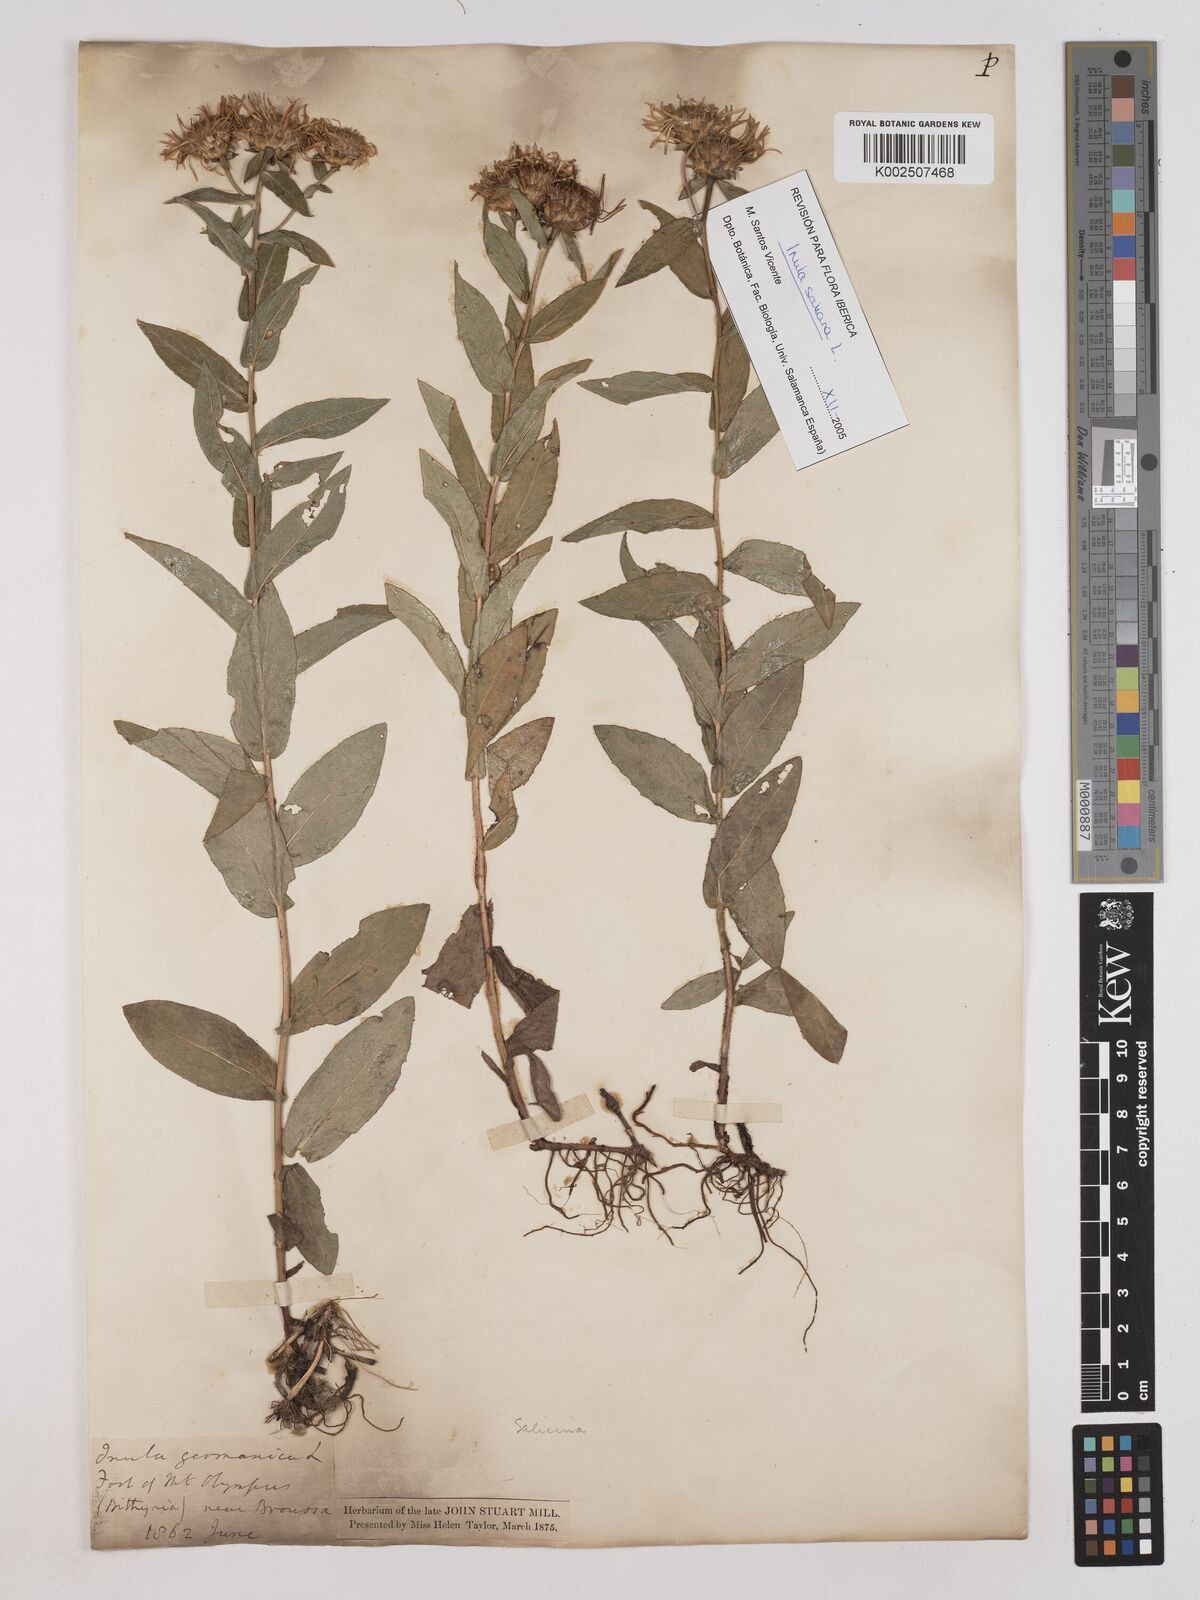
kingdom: Plantae
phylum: Tracheophyta
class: Magnoliopsida
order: Asterales
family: Asteraceae
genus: Pentanema
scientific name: Pentanema salicinum
